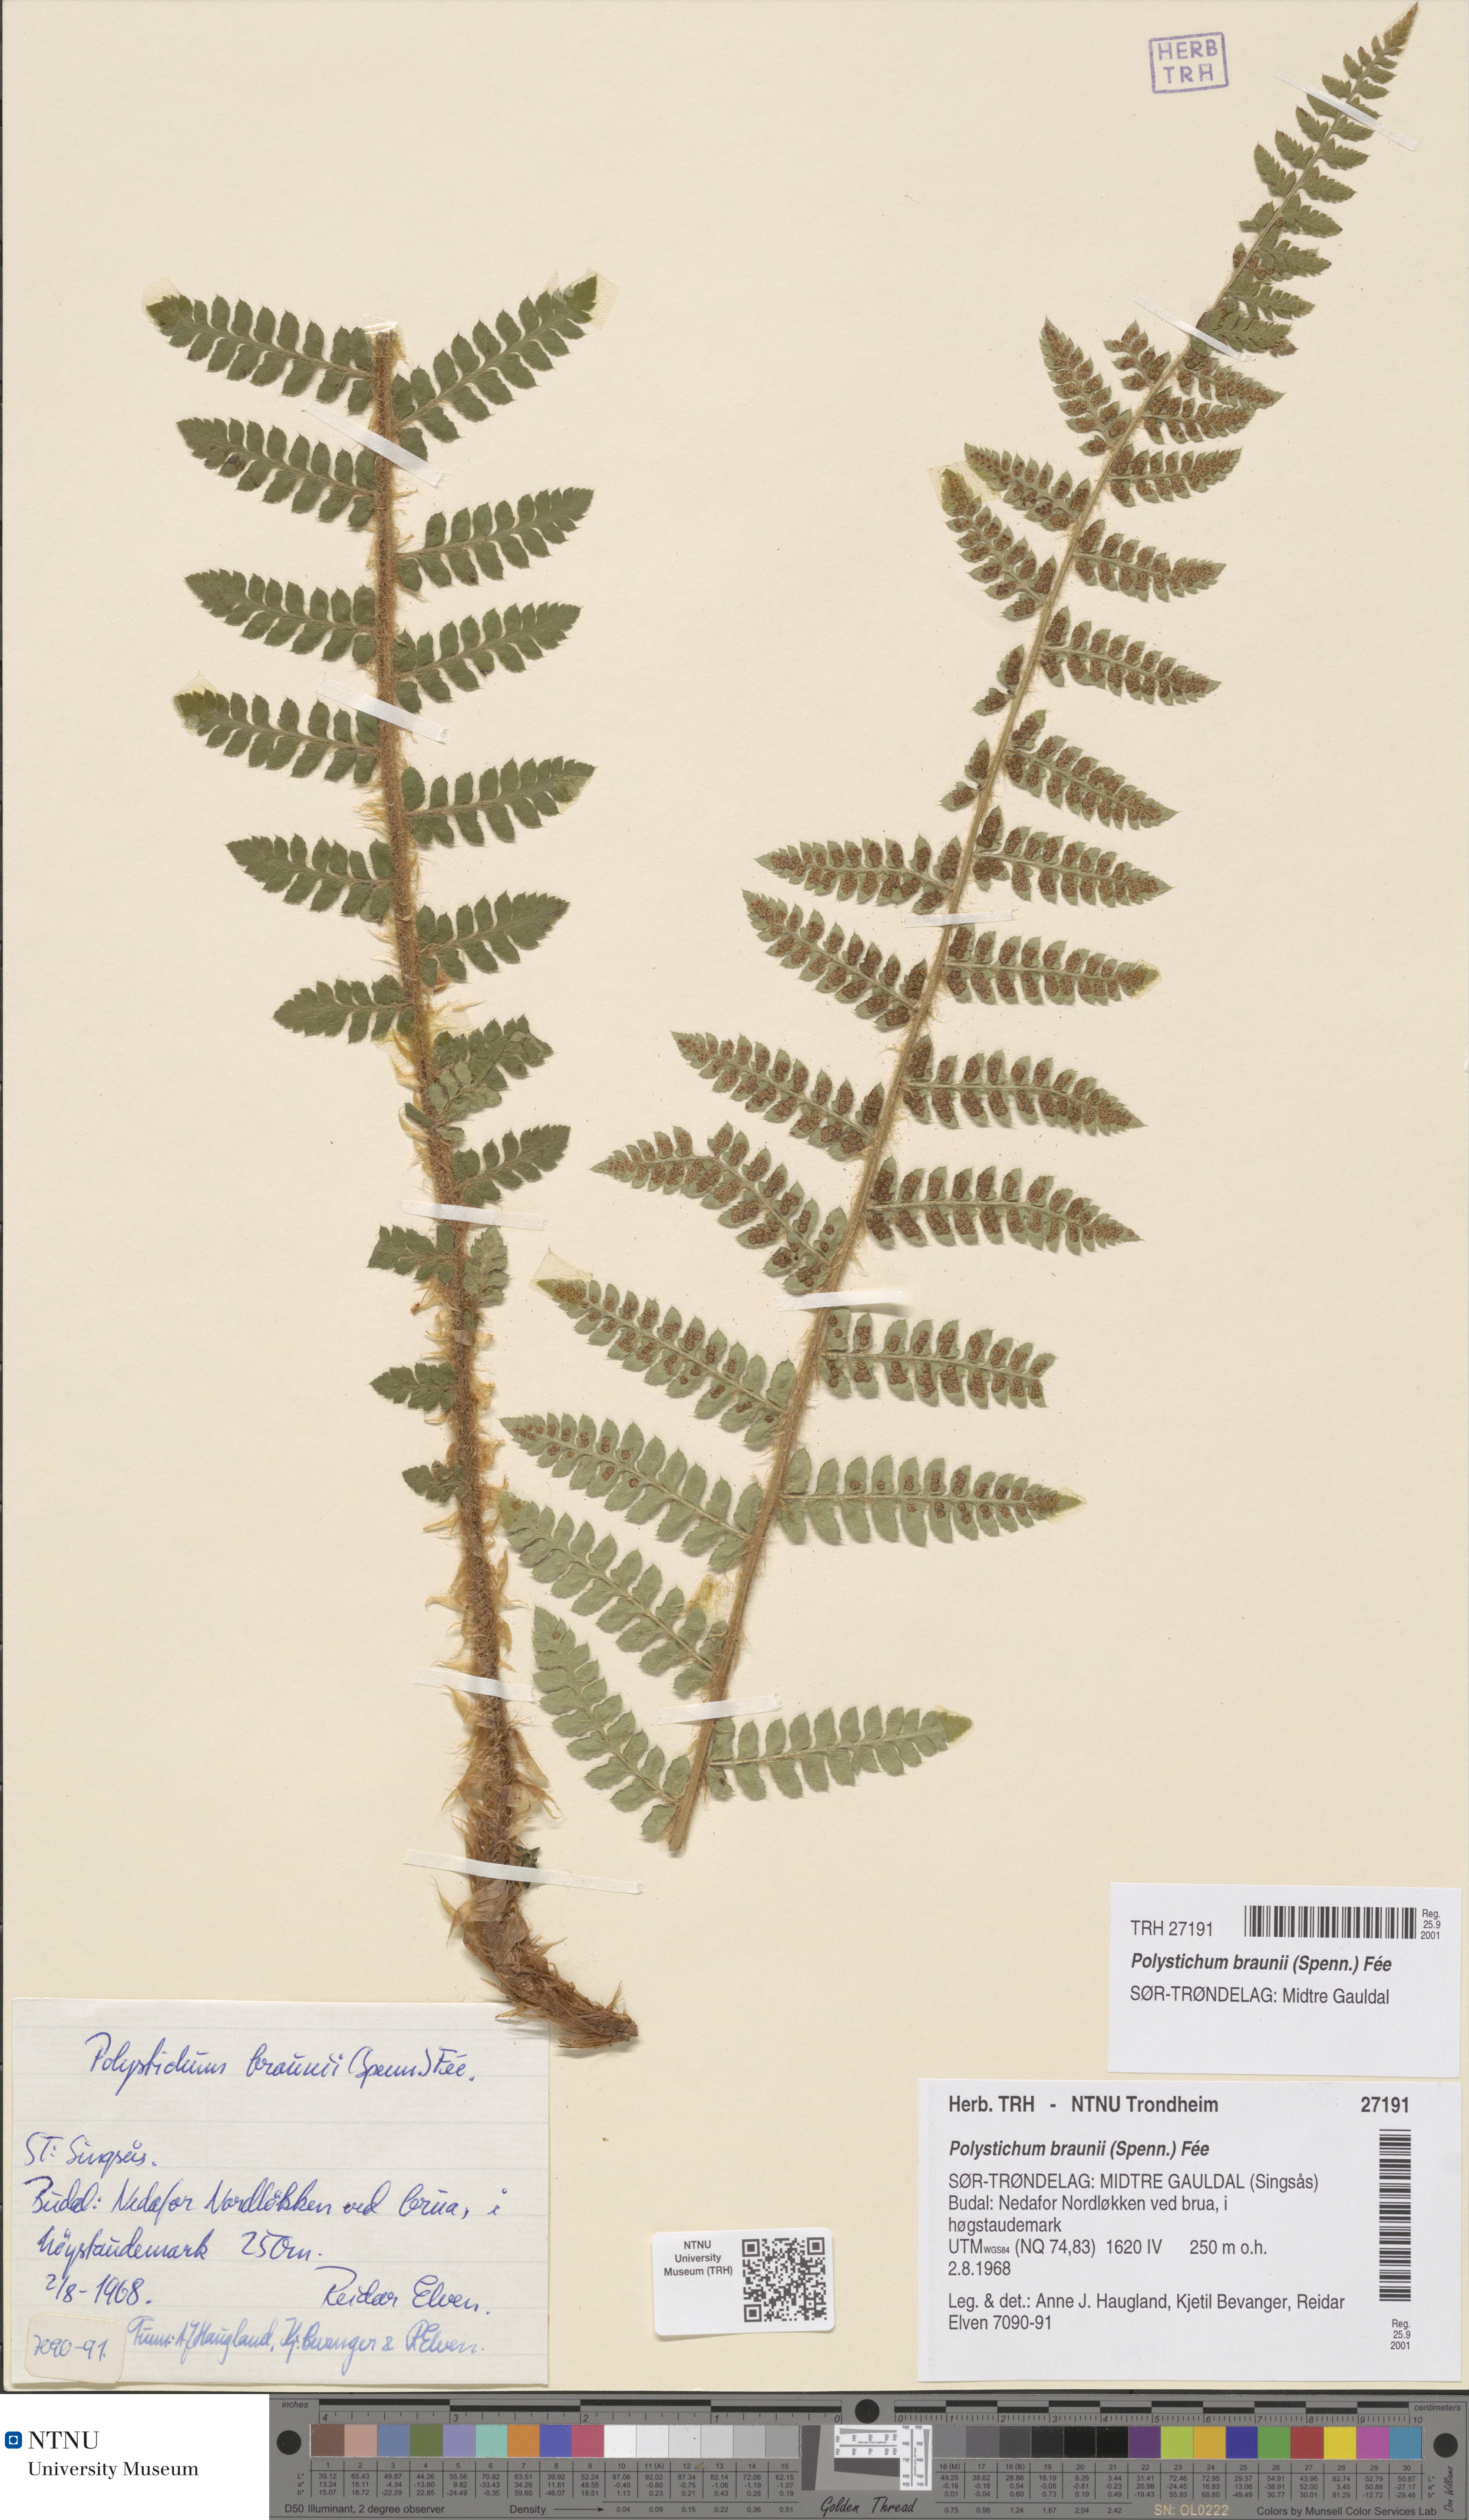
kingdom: Plantae
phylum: Tracheophyta
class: Polypodiopsida
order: Polypodiales
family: Dryopteridaceae
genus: Polystichum
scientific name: Polystichum braunii
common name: Braun's holly fern
